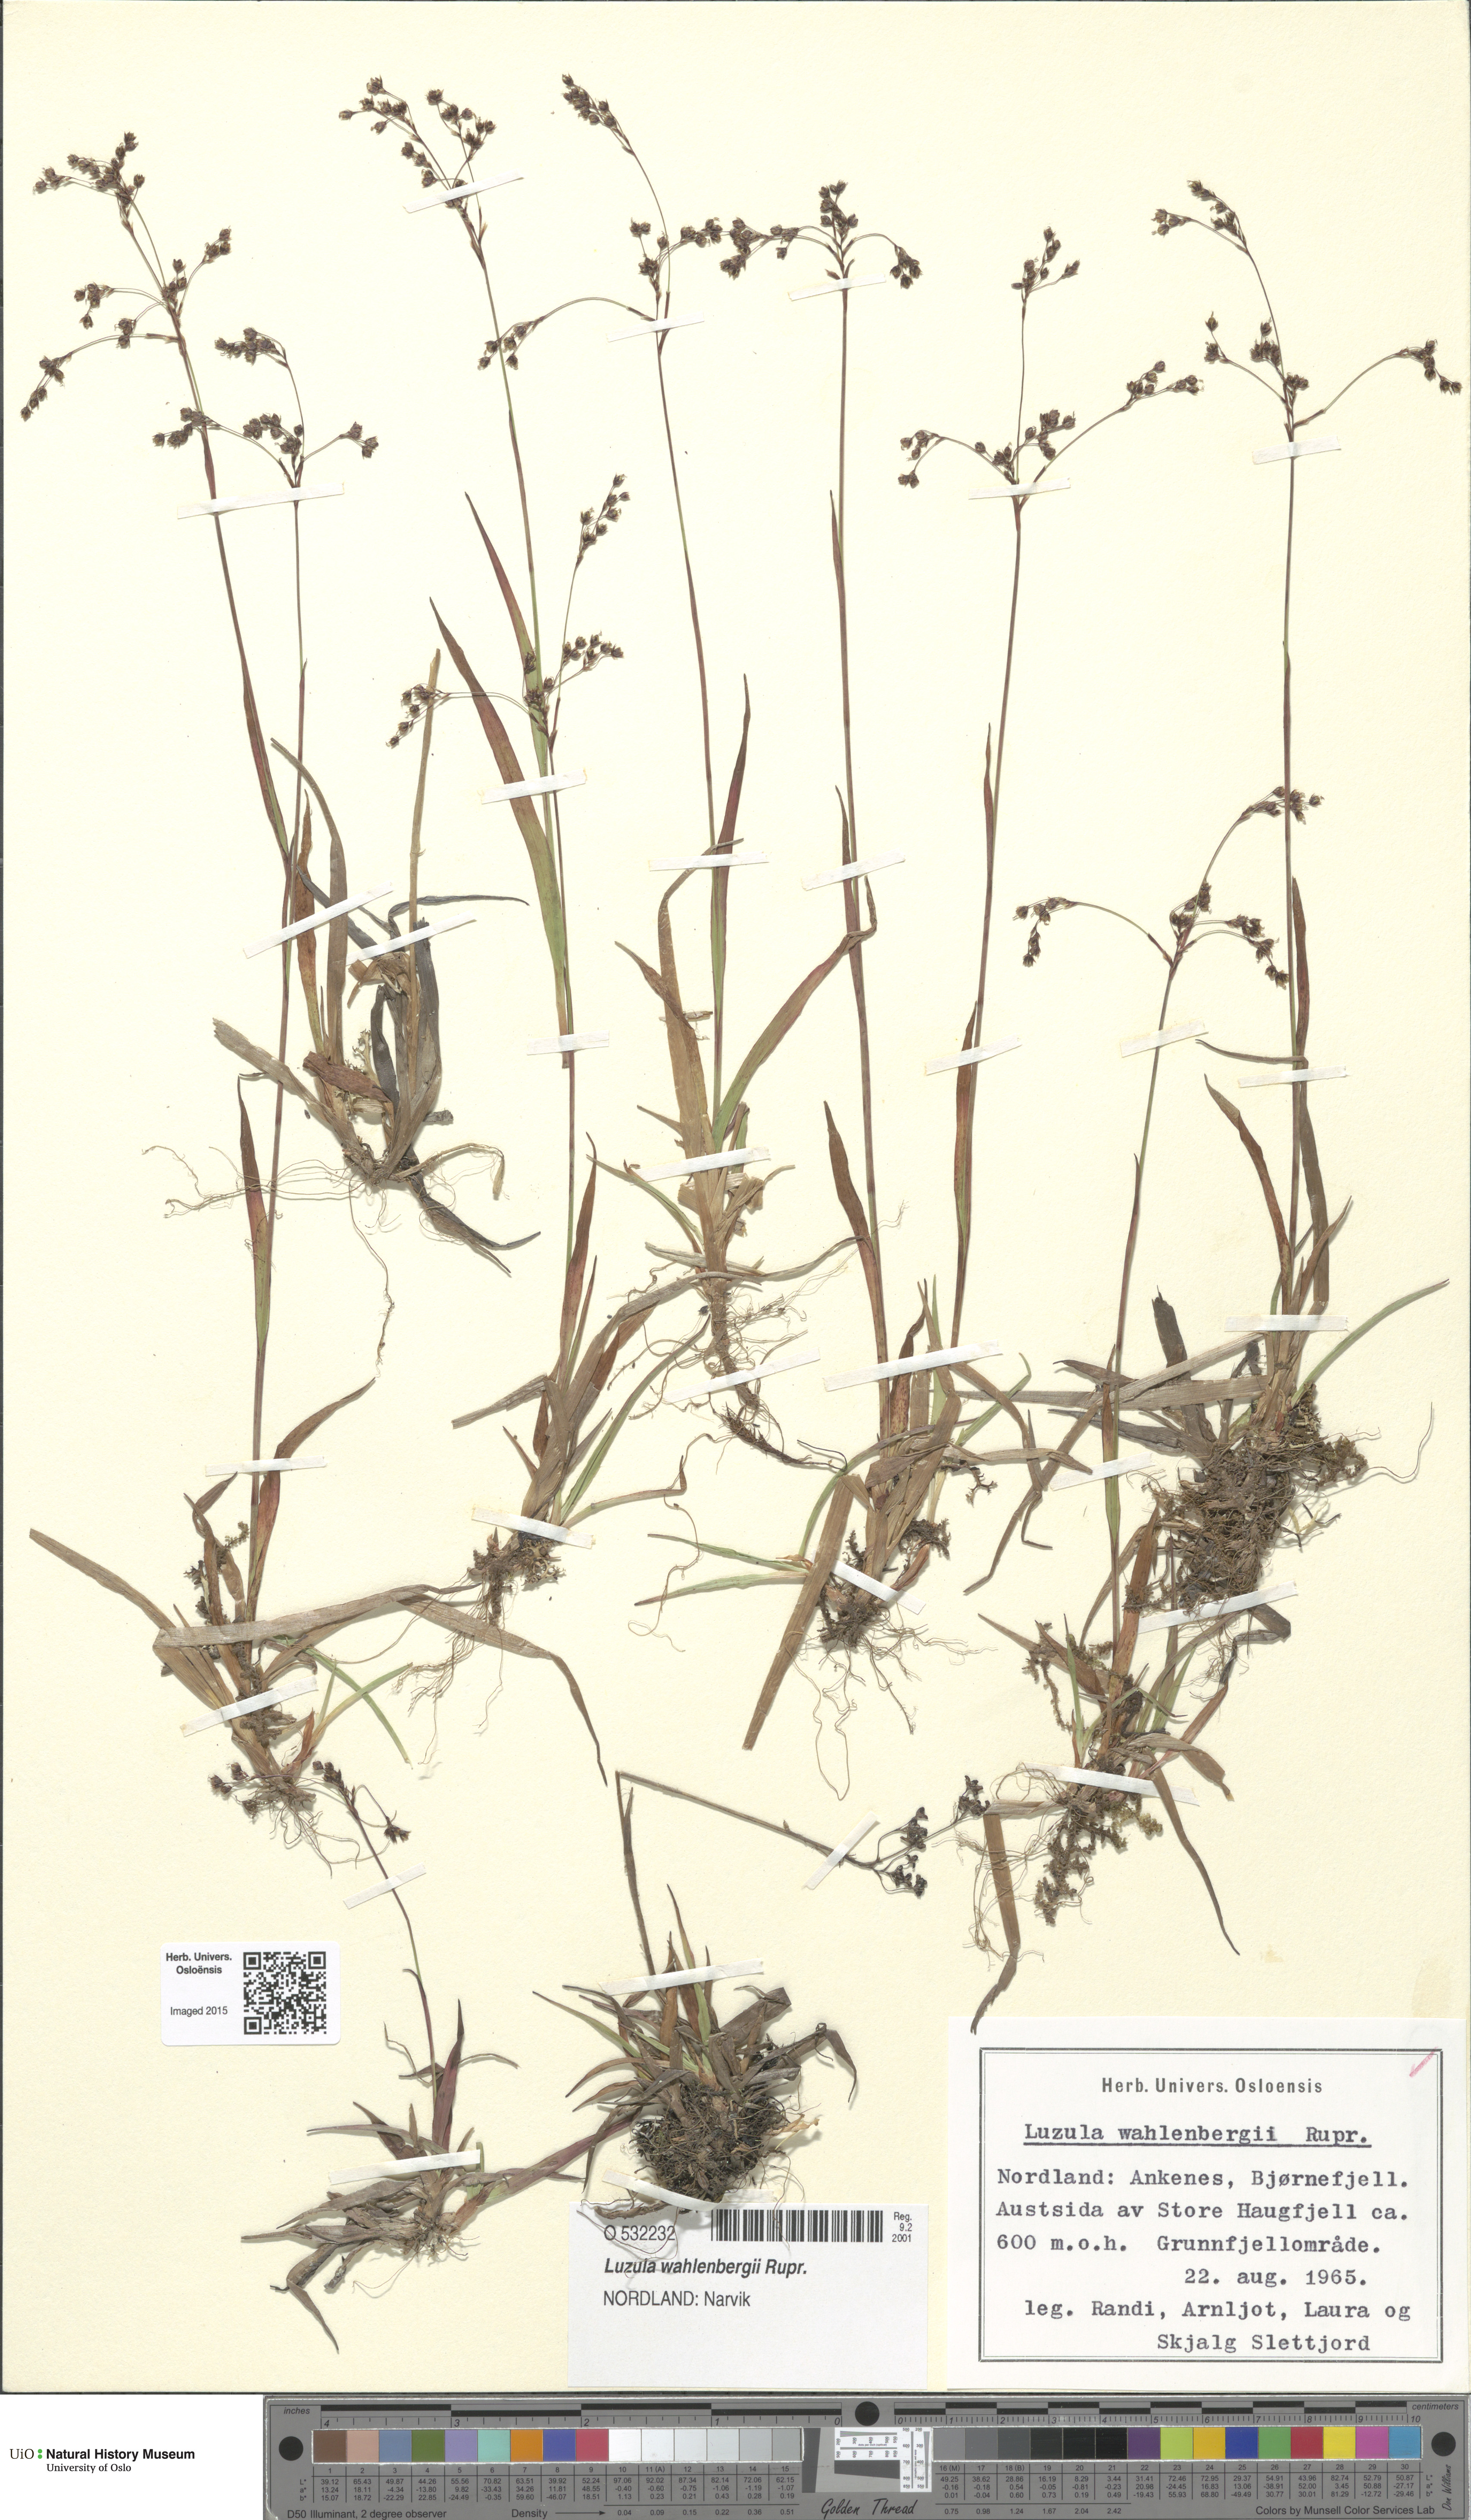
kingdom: Plantae
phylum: Tracheophyta
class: Liliopsida
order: Poales
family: Juncaceae
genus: Luzula
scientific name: Luzula wahlenbergii
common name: Wahlenberg's wood-rush
